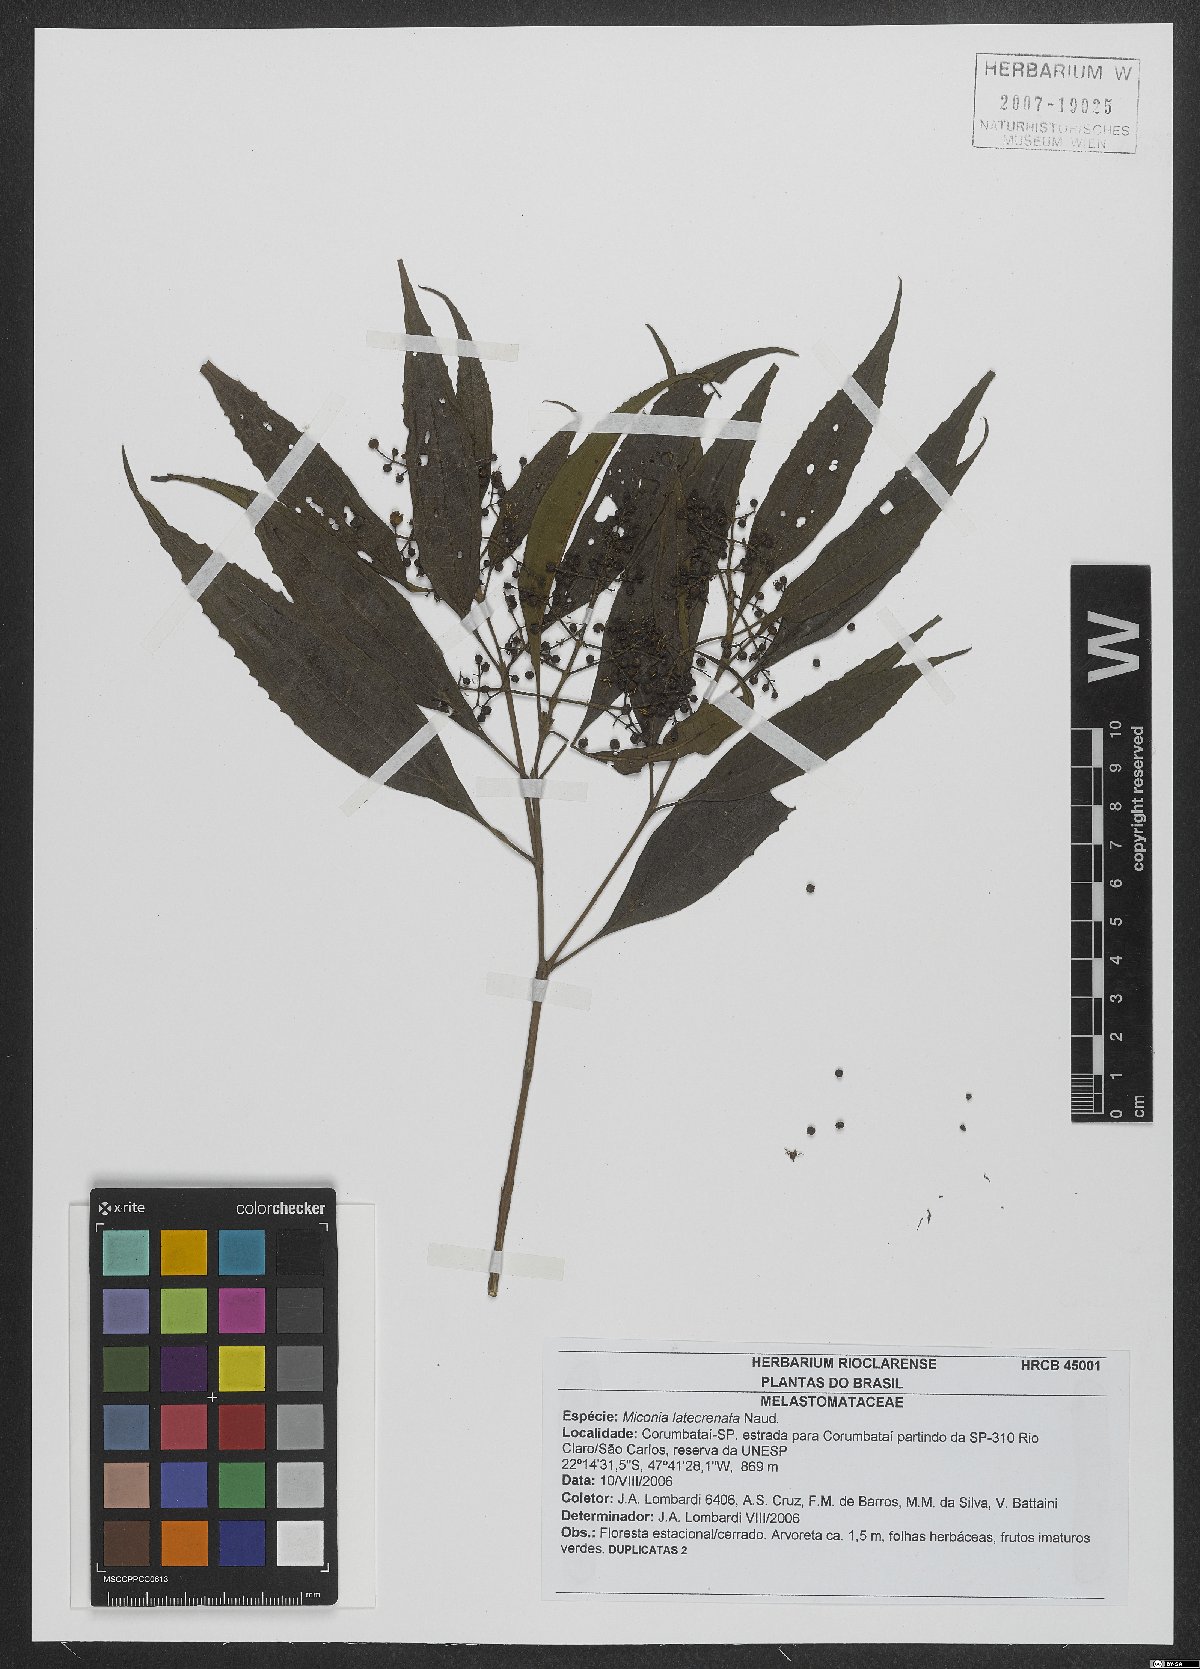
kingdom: Plantae
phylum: Tracheophyta
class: Magnoliopsida
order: Myrtales
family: Melastomataceae
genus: Miconia
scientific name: Miconia latecrenata
